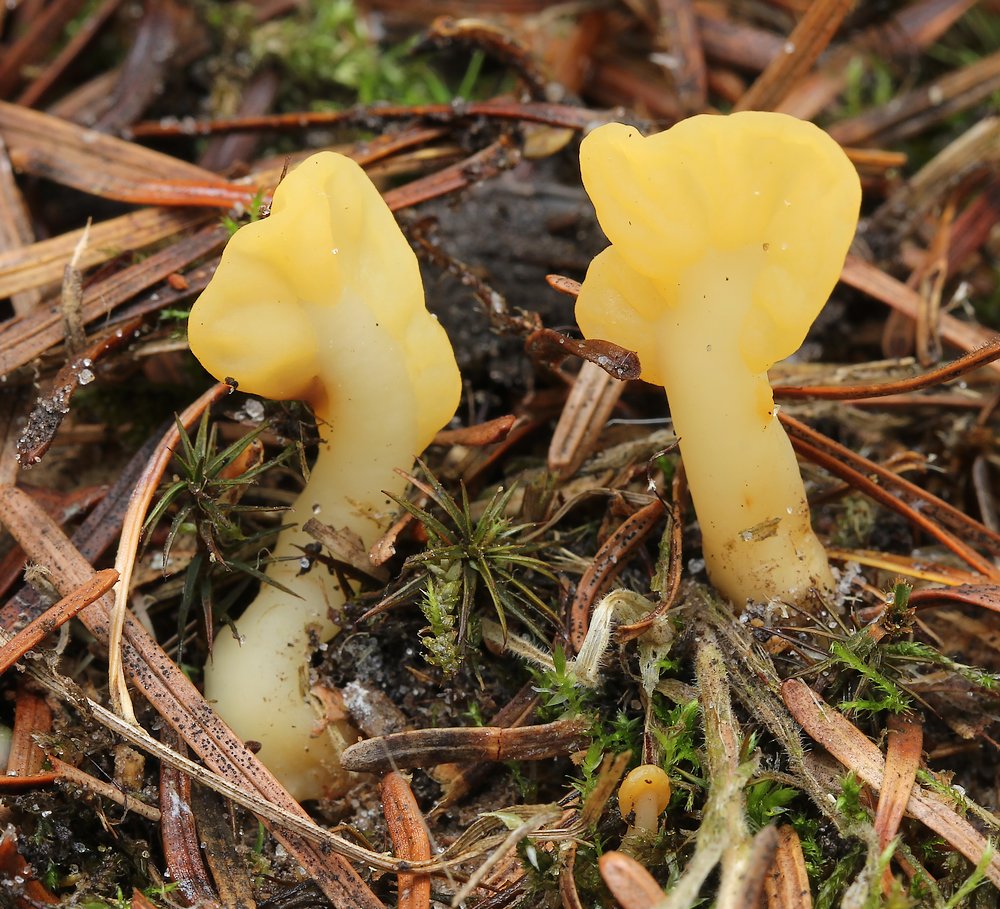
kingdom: Fungi
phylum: Ascomycota
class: Leotiomycetes
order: Rhytismatales
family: Cudoniaceae
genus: Spathularia
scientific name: Spathularia flavida
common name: gul spatelsvamp
